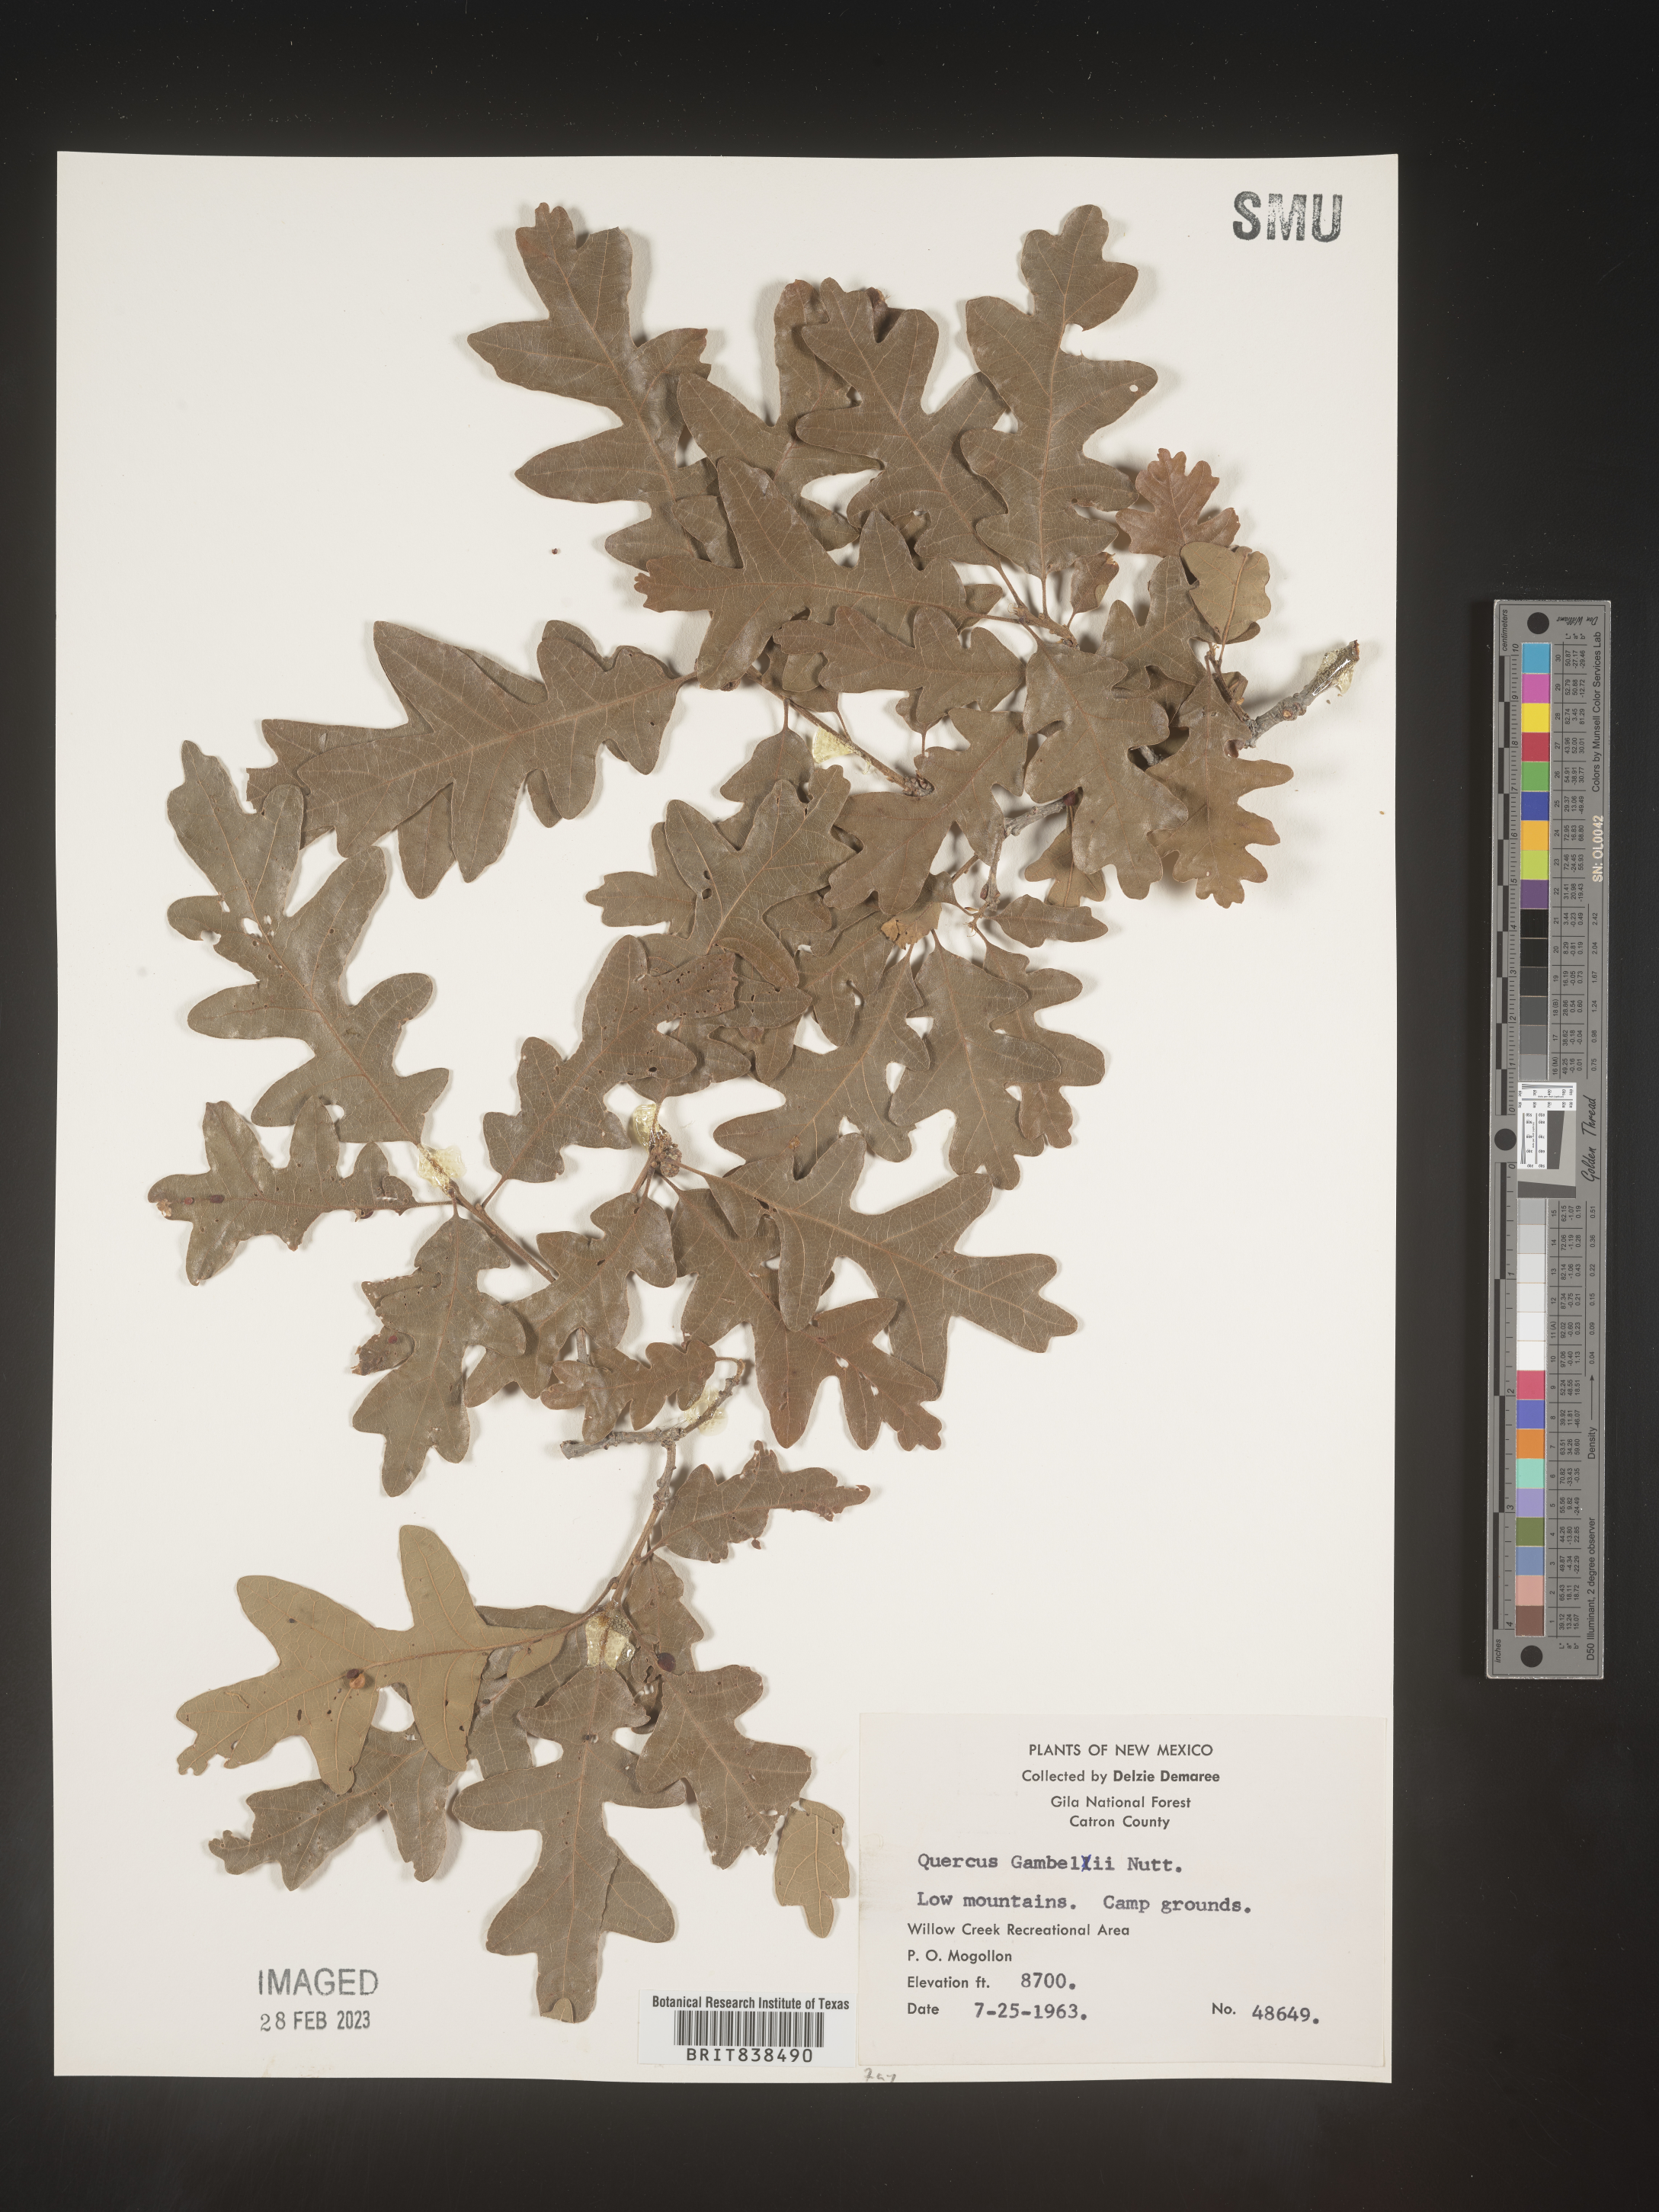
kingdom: Plantae
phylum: Tracheophyta
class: Magnoliopsida
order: Fagales
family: Fagaceae
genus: Quercus
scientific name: Quercus gambelii
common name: Gambel oak
